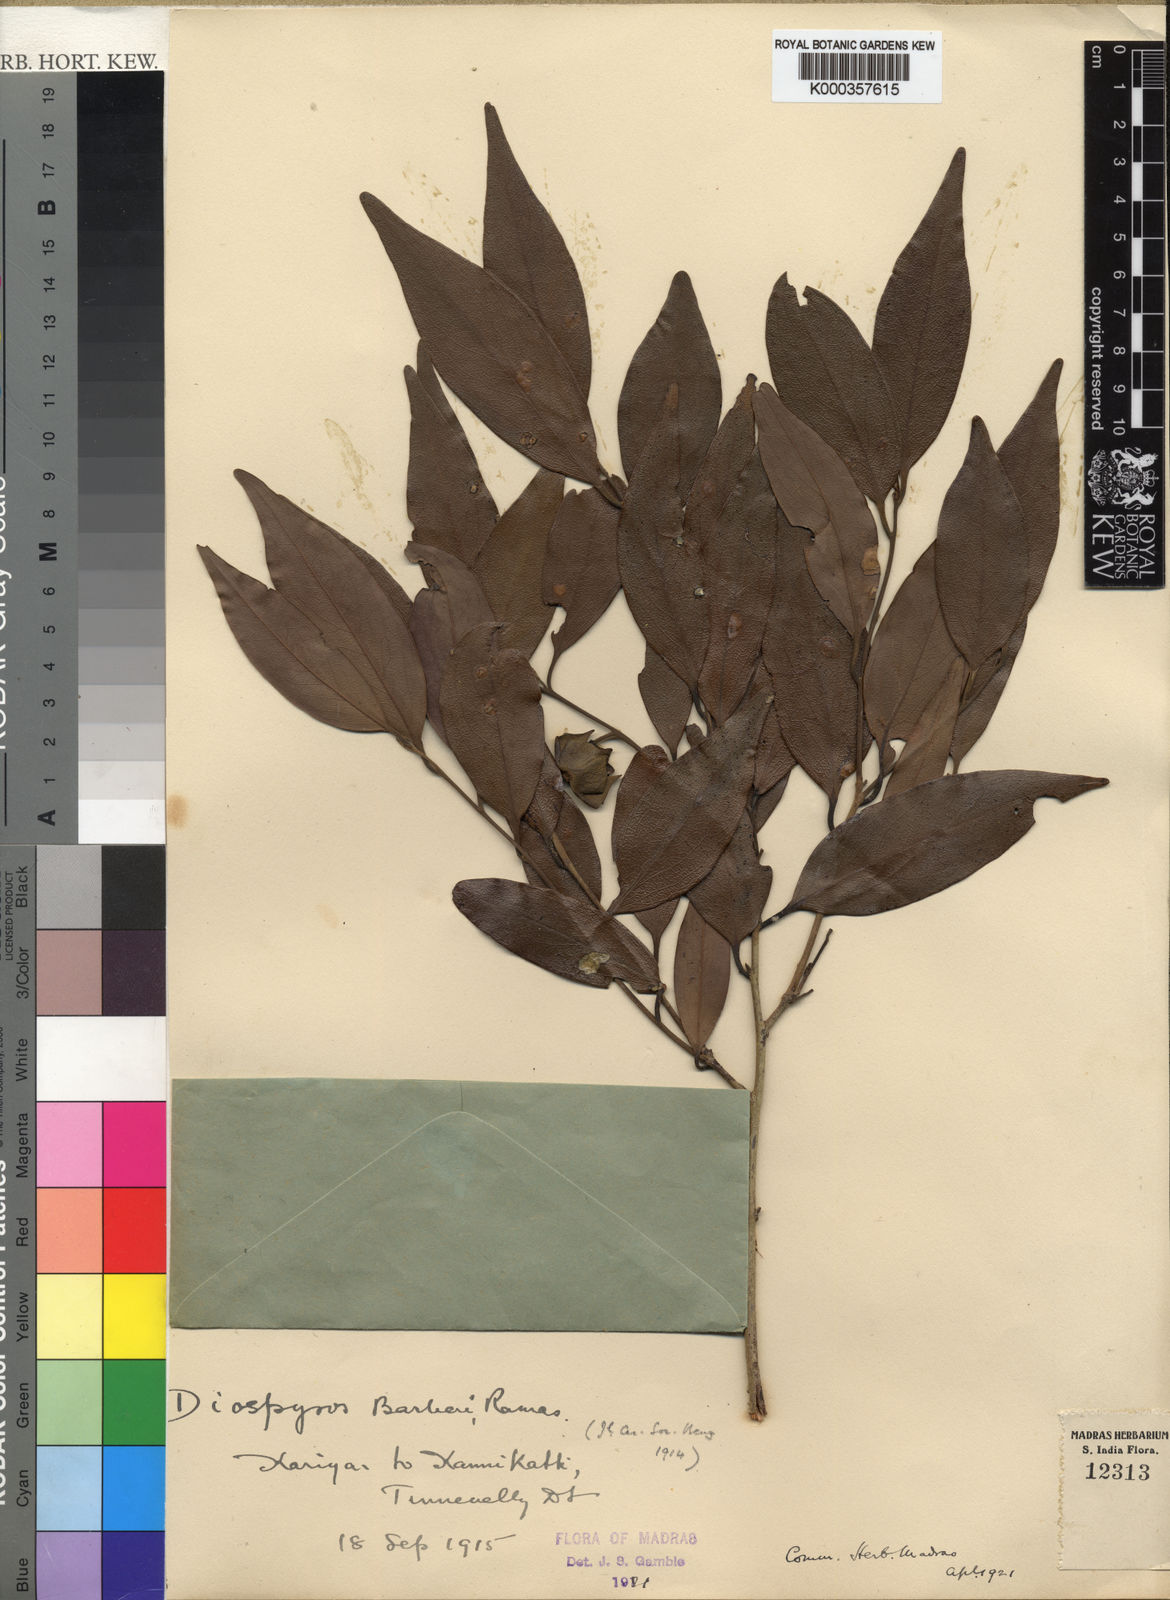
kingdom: Plantae
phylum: Tracheophyta
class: Magnoliopsida
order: Ericales
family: Ebenaceae
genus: Diospyros
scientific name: Diospyros barberi
